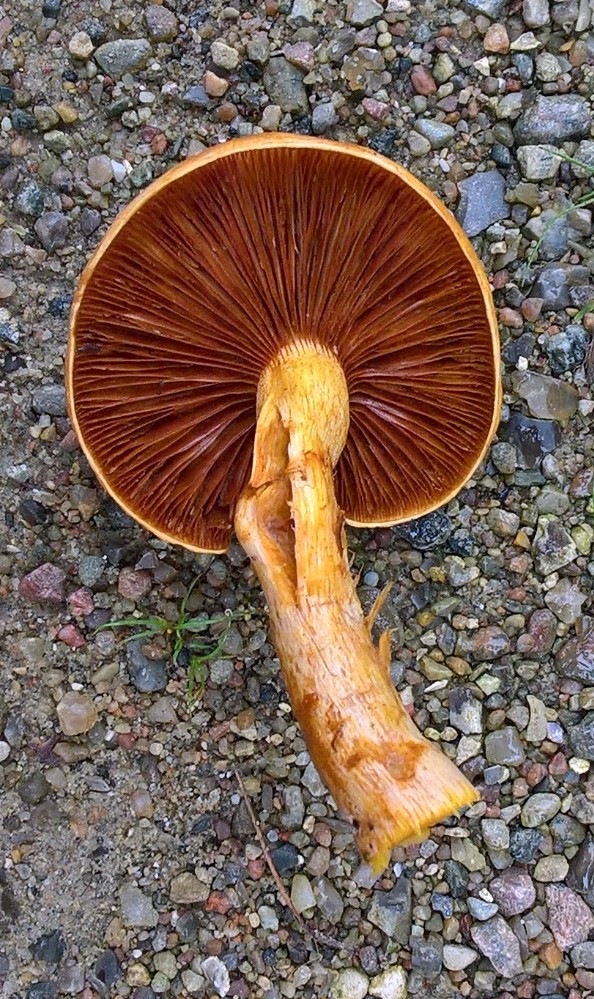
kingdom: Fungi
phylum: Basidiomycota
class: Agaricomycetes
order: Agaricales
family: Hymenogastraceae
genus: Gymnopilus
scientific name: Gymnopilus spectabilis
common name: fibret flammehat
